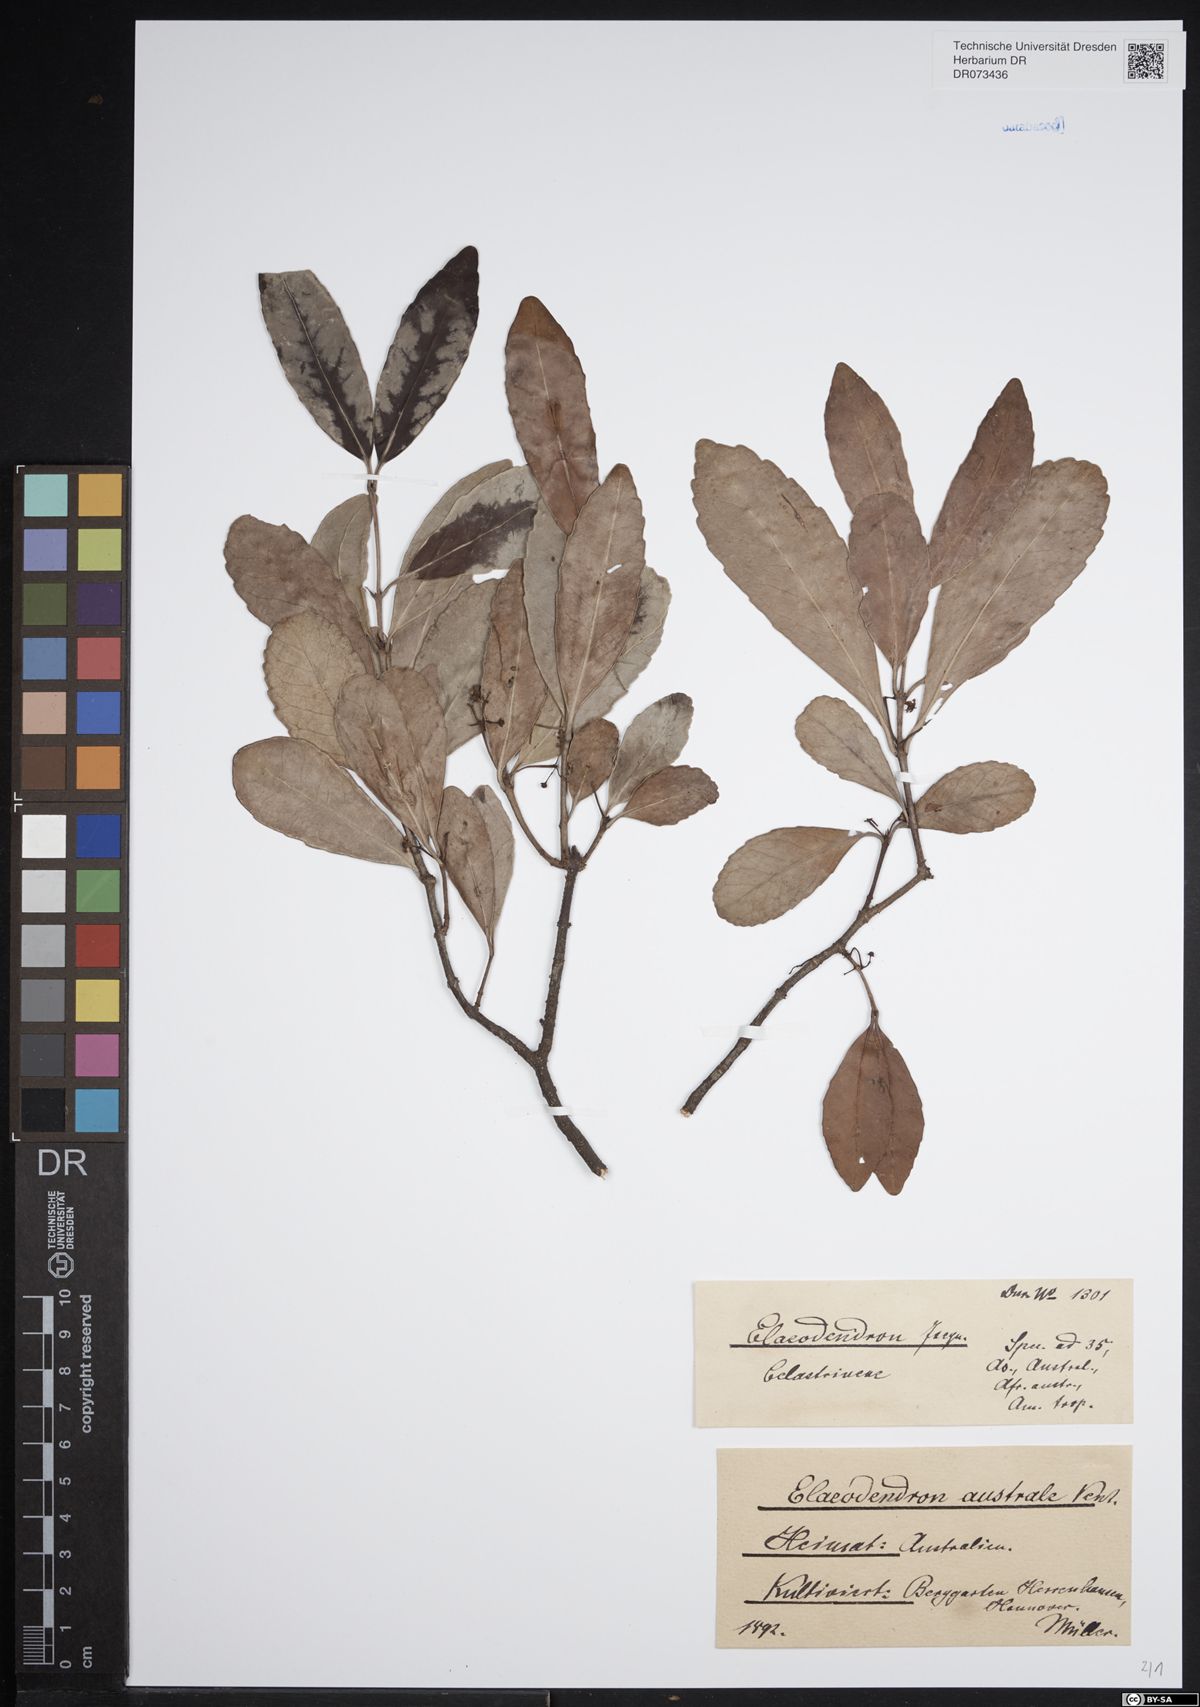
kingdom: Plantae
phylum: Tracheophyta
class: Magnoliopsida
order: Celastrales
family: Celastraceae
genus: Elaeodendron
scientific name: Elaeodendron australe
